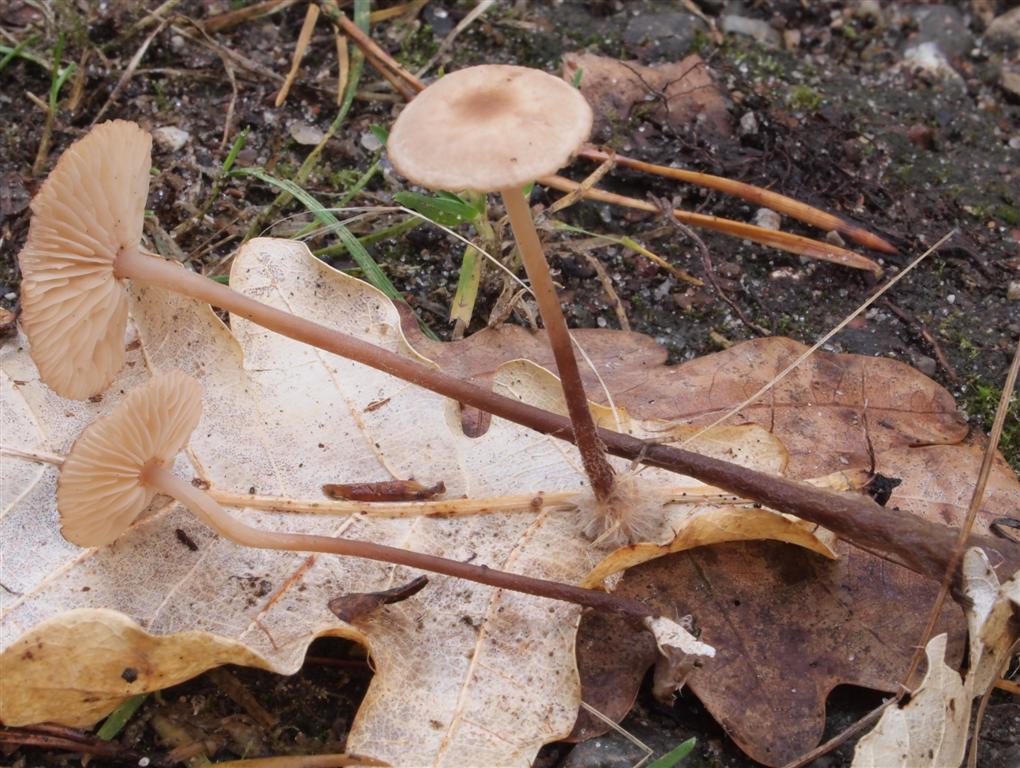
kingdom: Fungi
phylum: Basidiomycota
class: Agaricomycetes
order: Agaricales
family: Omphalotaceae
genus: Mycetinis
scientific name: Mycetinis querceus
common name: ege-løghat
